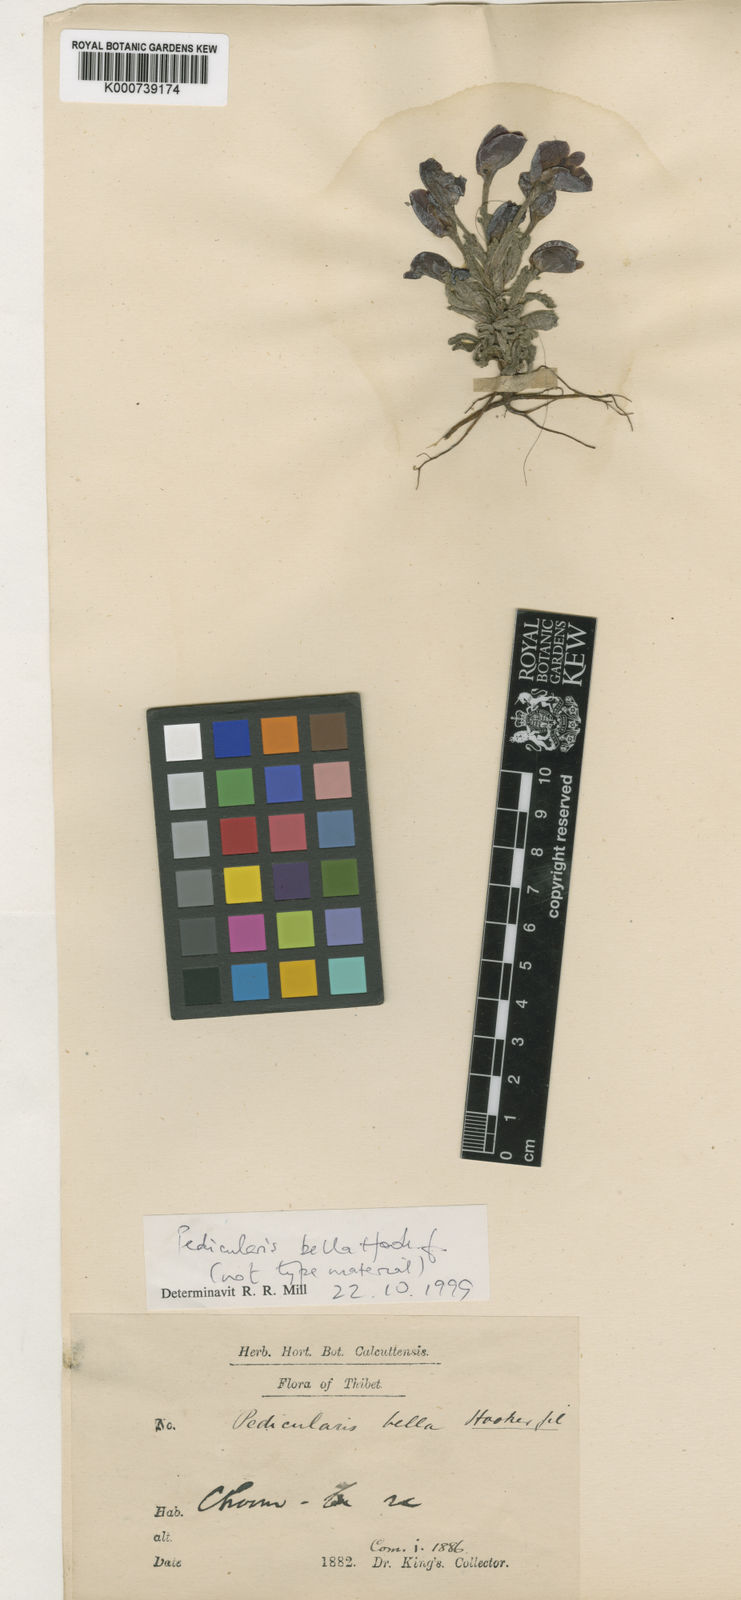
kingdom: Plantae
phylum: Tracheophyta
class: Magnoliopsida
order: Lamiales
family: Orobanchaceae
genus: Pedicularis
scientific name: Pedicularis bella
